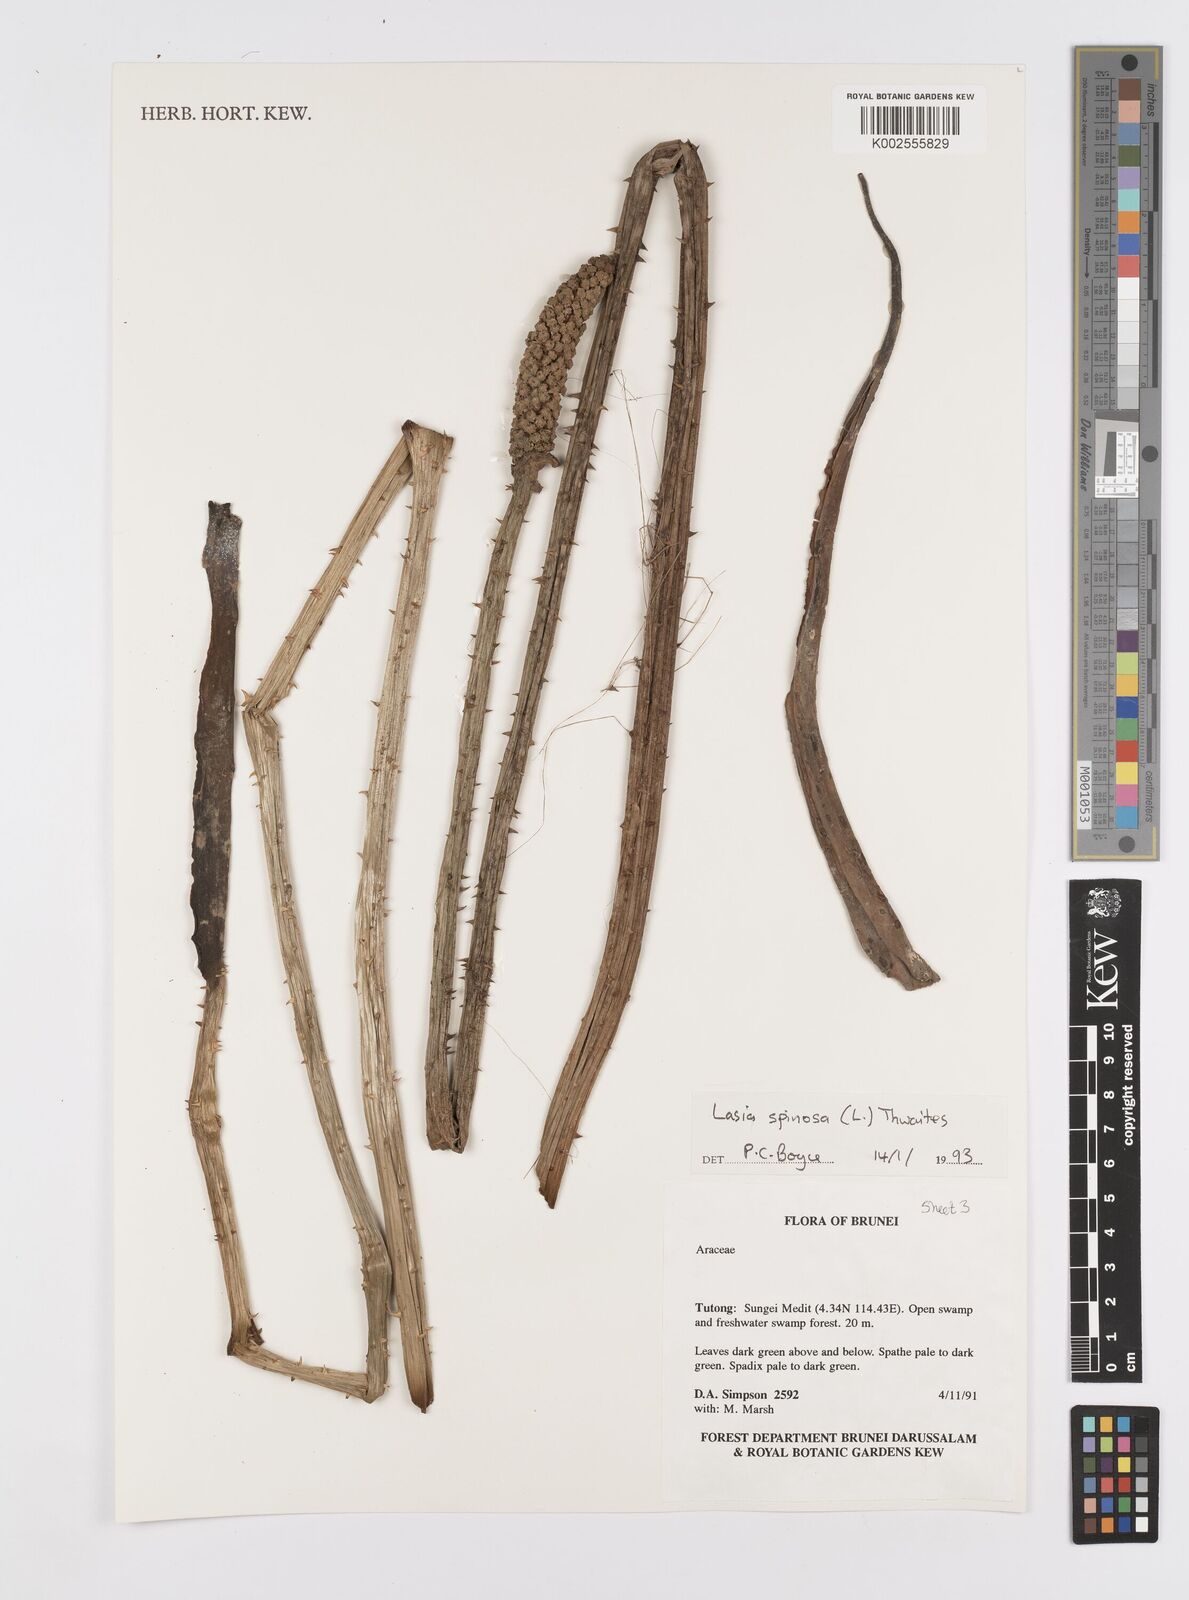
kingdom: Plantae
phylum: Tracheophyta
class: Liliopsida
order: Alismatales
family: Araceae
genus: Lasia
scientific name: Lasia spinosa
